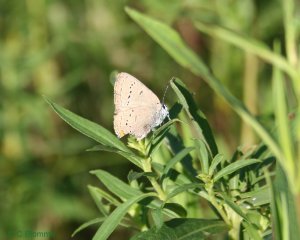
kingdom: Animalia
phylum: Arthropoda
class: Insecta
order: Lepidoptera
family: Lycaenidae
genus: Strymon
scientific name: Strymon acadica
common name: Acadian Hairstreak
